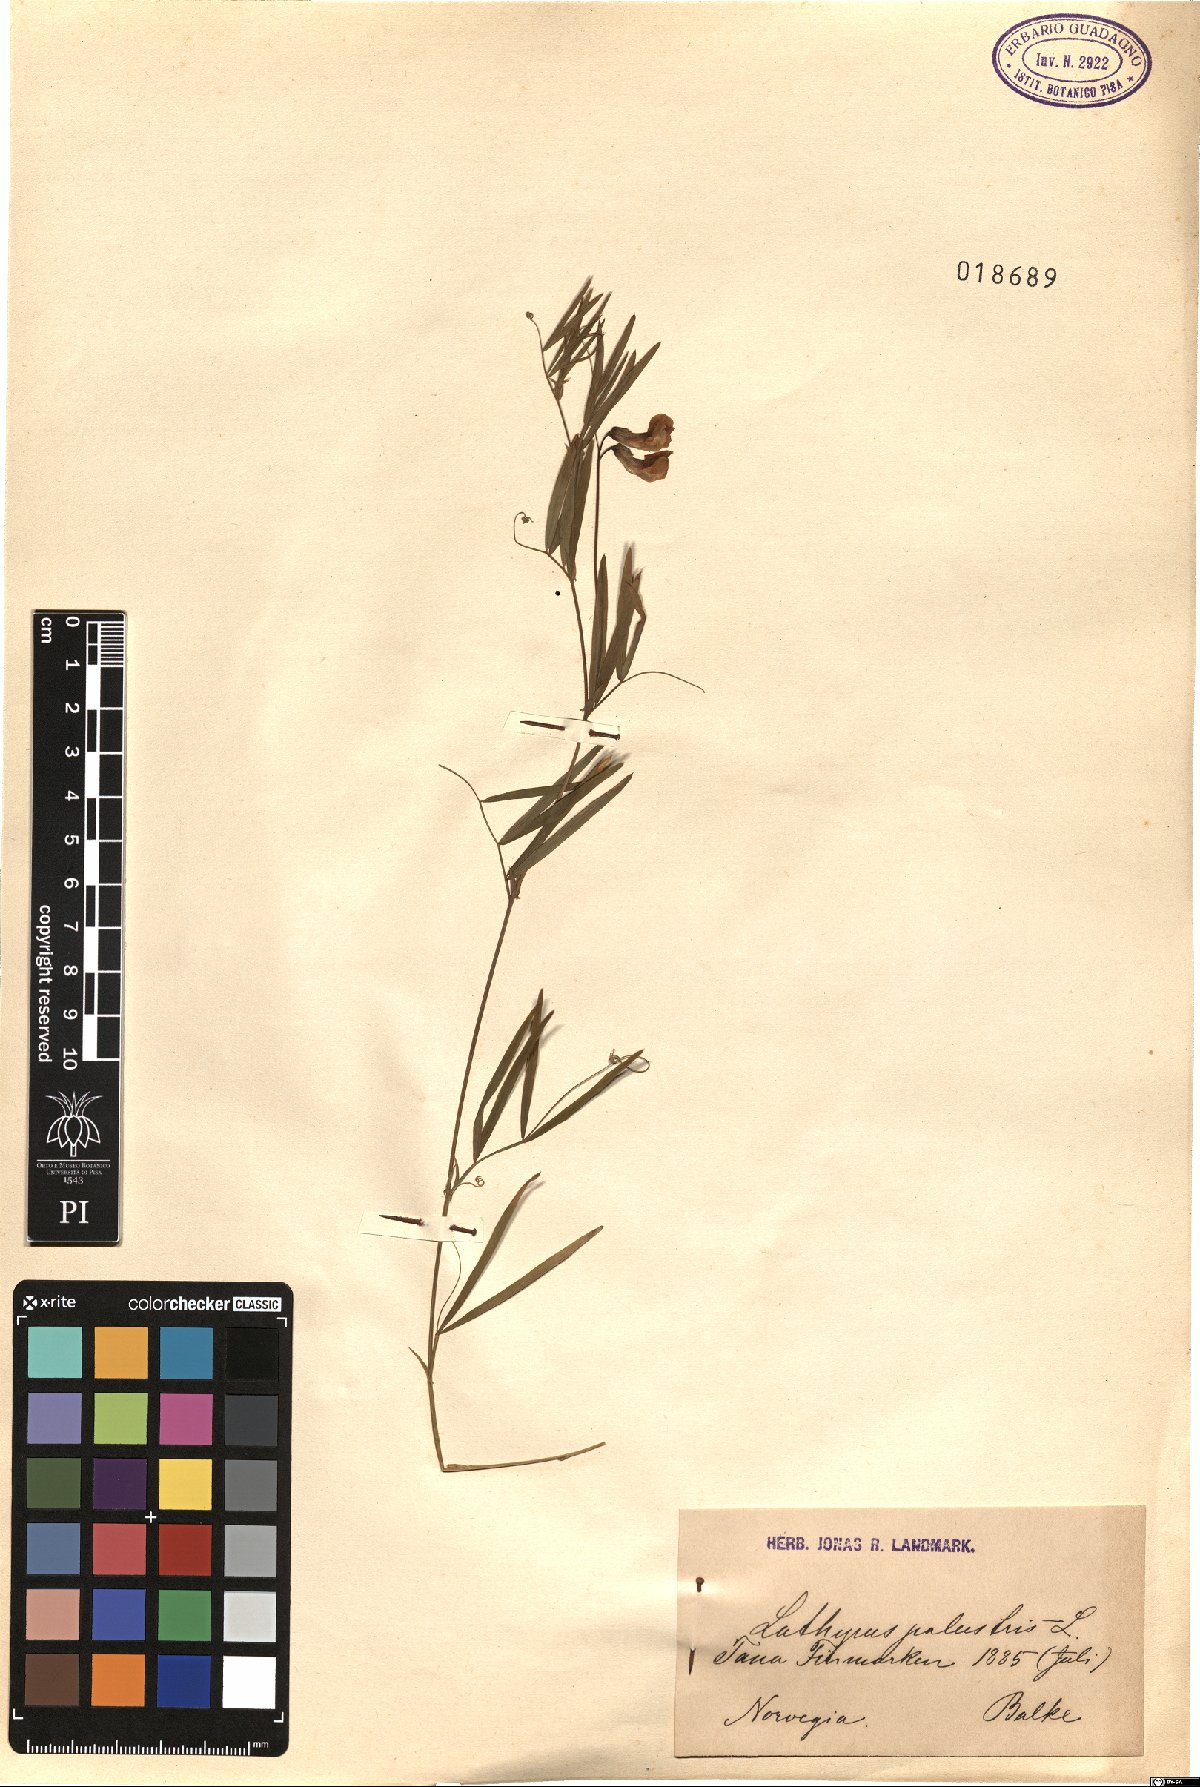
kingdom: Plantae
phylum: Tracheophyta
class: Magnoliopsida
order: Fabales
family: Fabaceae
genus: Lathyrus
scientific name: Lathyrus palustris
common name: Marsh pea
